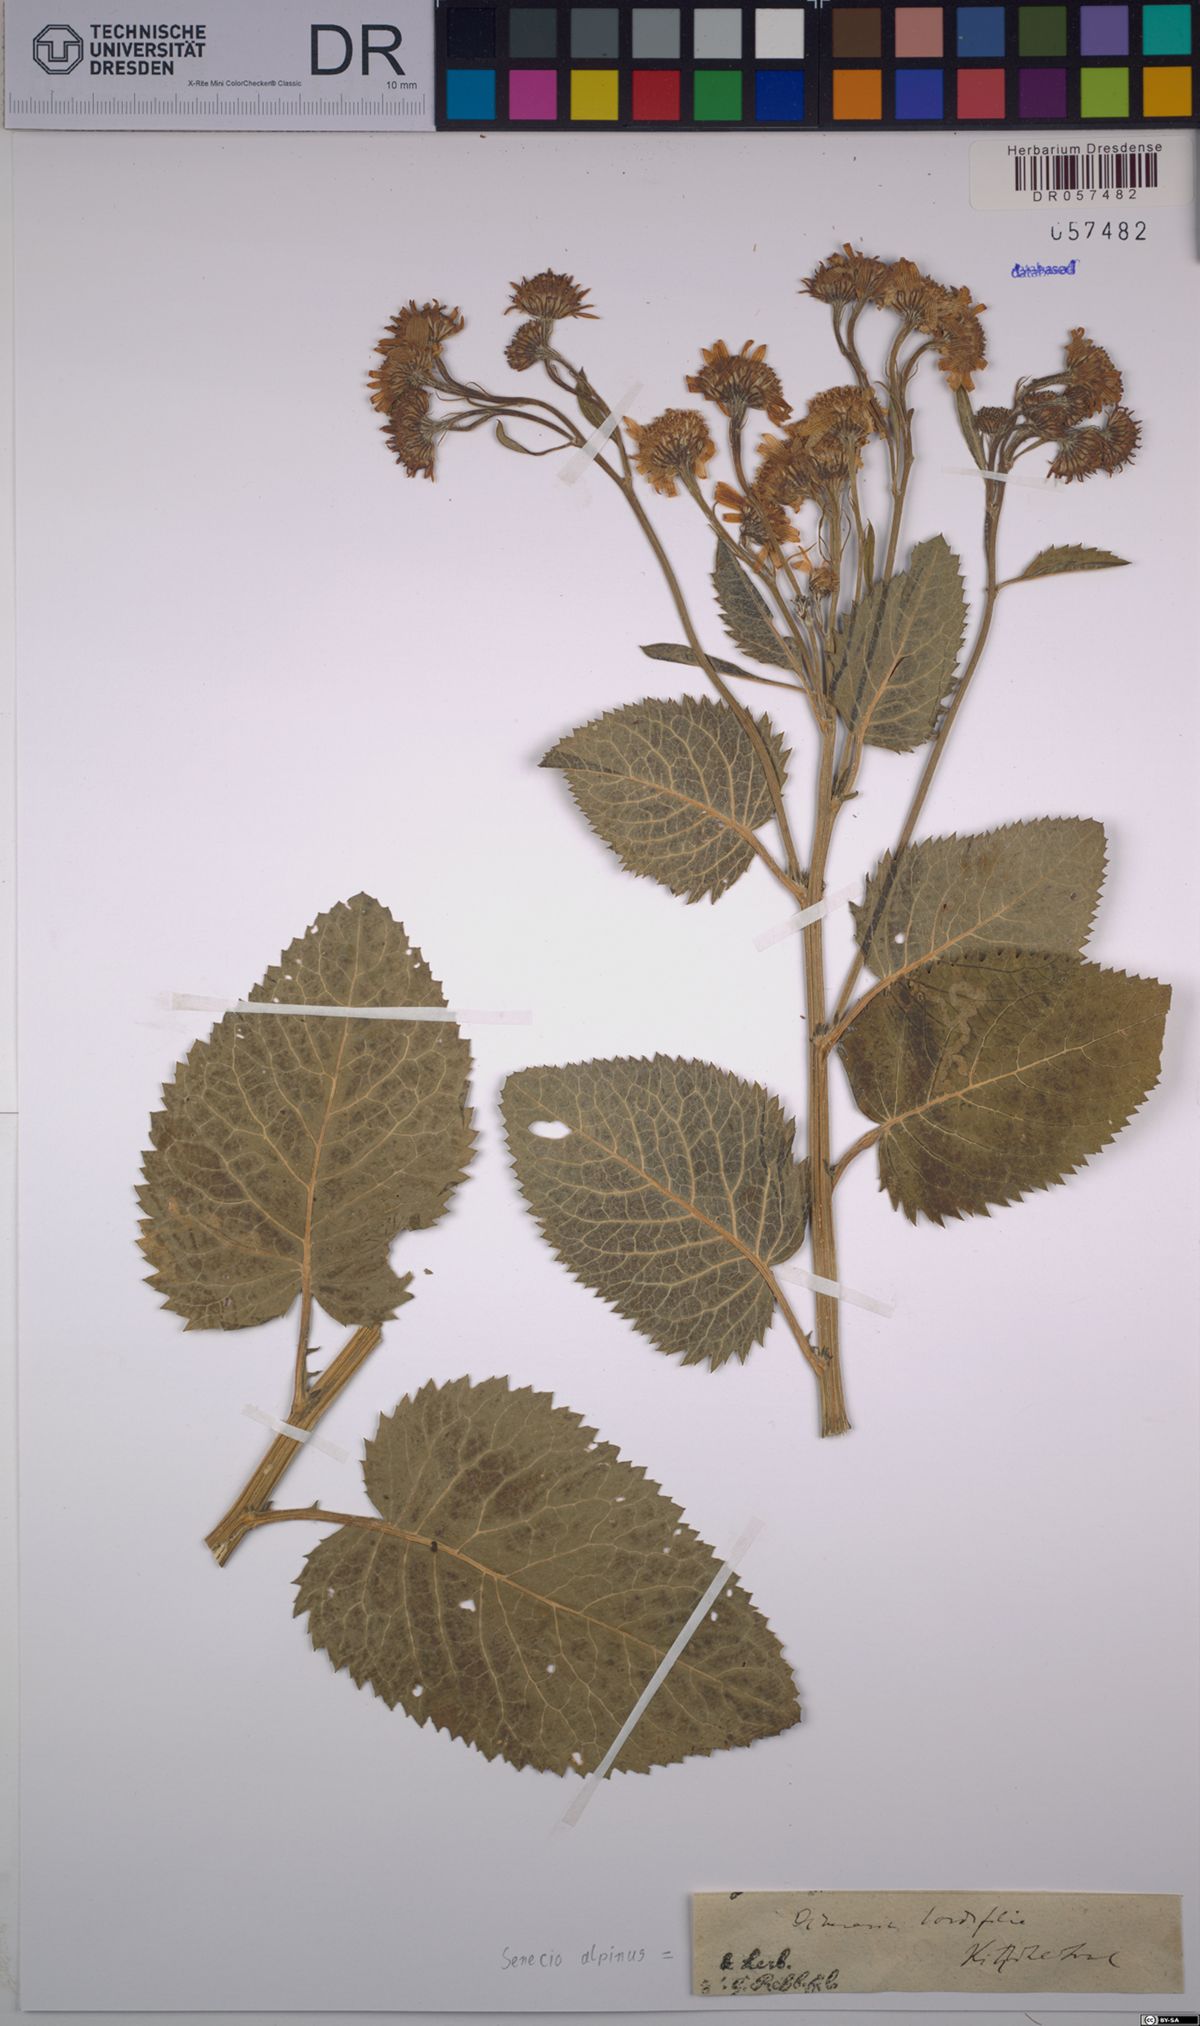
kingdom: Plantae
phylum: Tracheophyta
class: Magnoliopsida
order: Asterales
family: Asteraceae
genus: Jacobaea
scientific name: Jacobaea alpina
